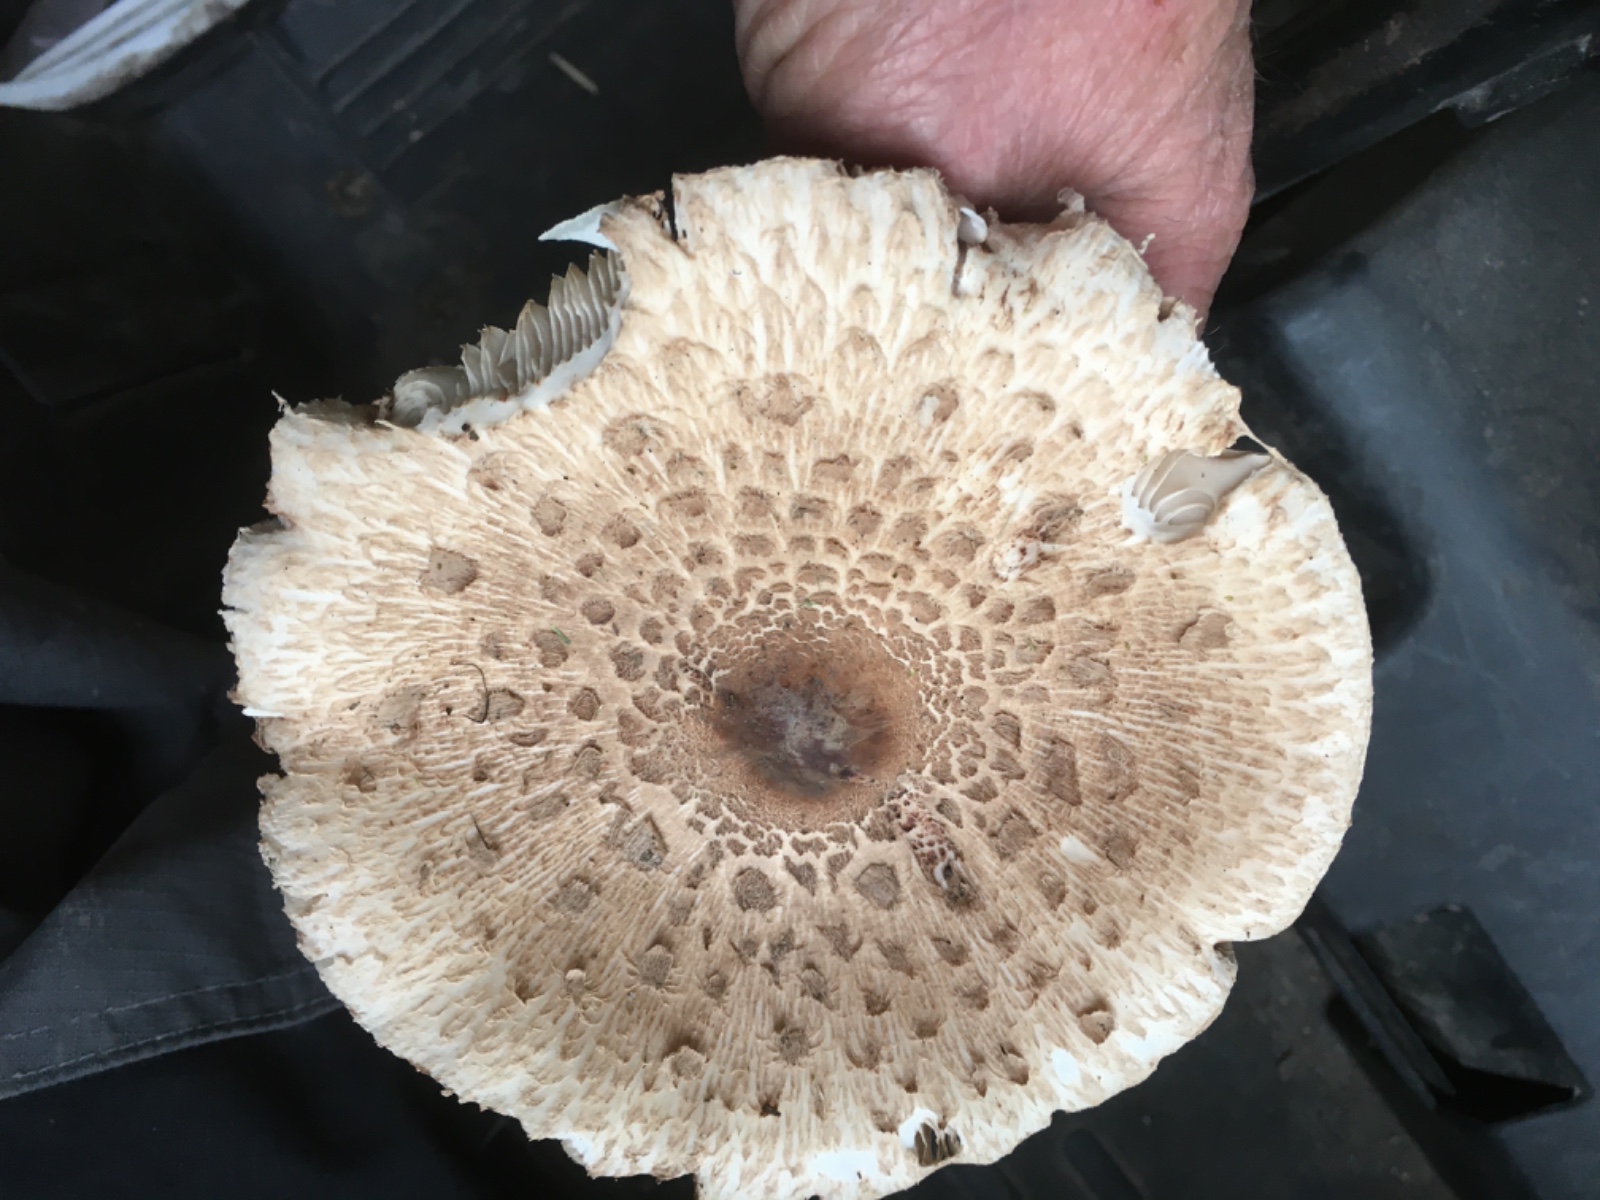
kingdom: Fungi
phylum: Basidiomycota
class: Agaricomycetes
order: Agaricales
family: Agaricaceae
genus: Chlorophyllum
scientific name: Chlorophyllum olivieri
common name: almindelig rabarberhat
